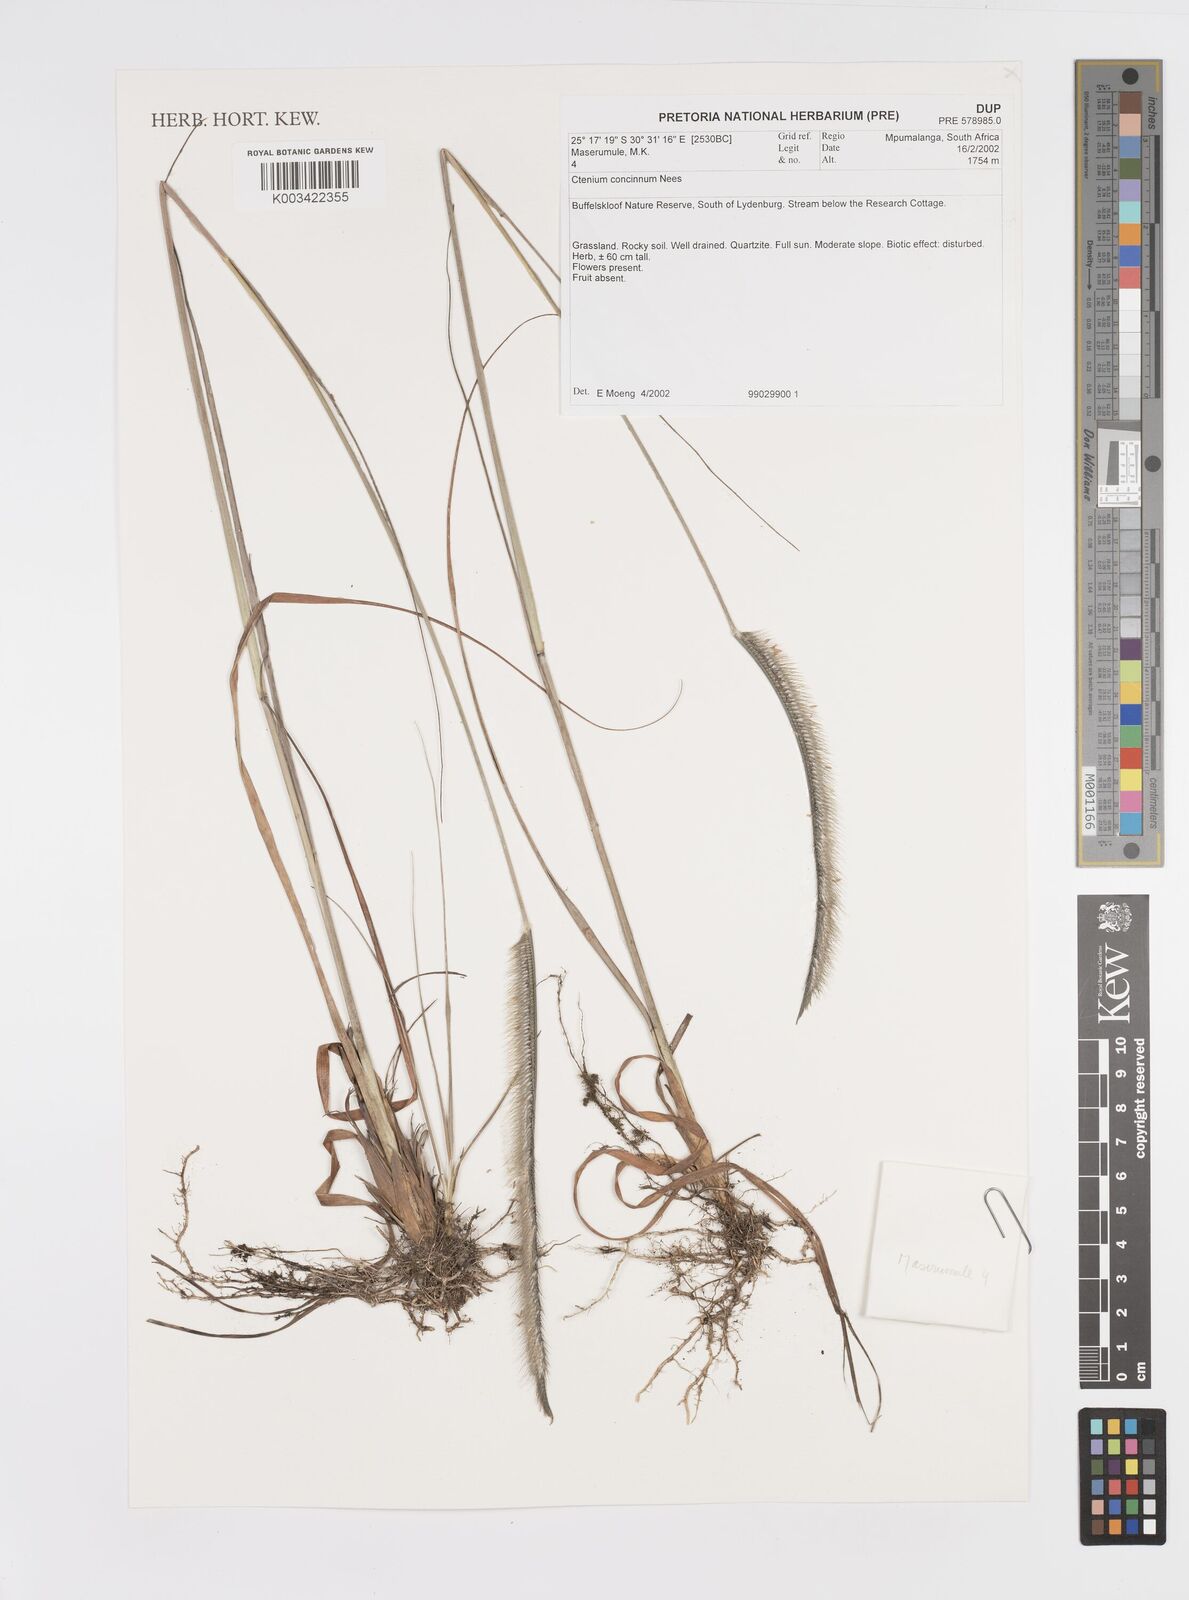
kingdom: Plantae
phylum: Tracheophyta
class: Liliopsida
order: Poales
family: Poaceae
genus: Ctenium
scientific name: Ctenium concinnum
